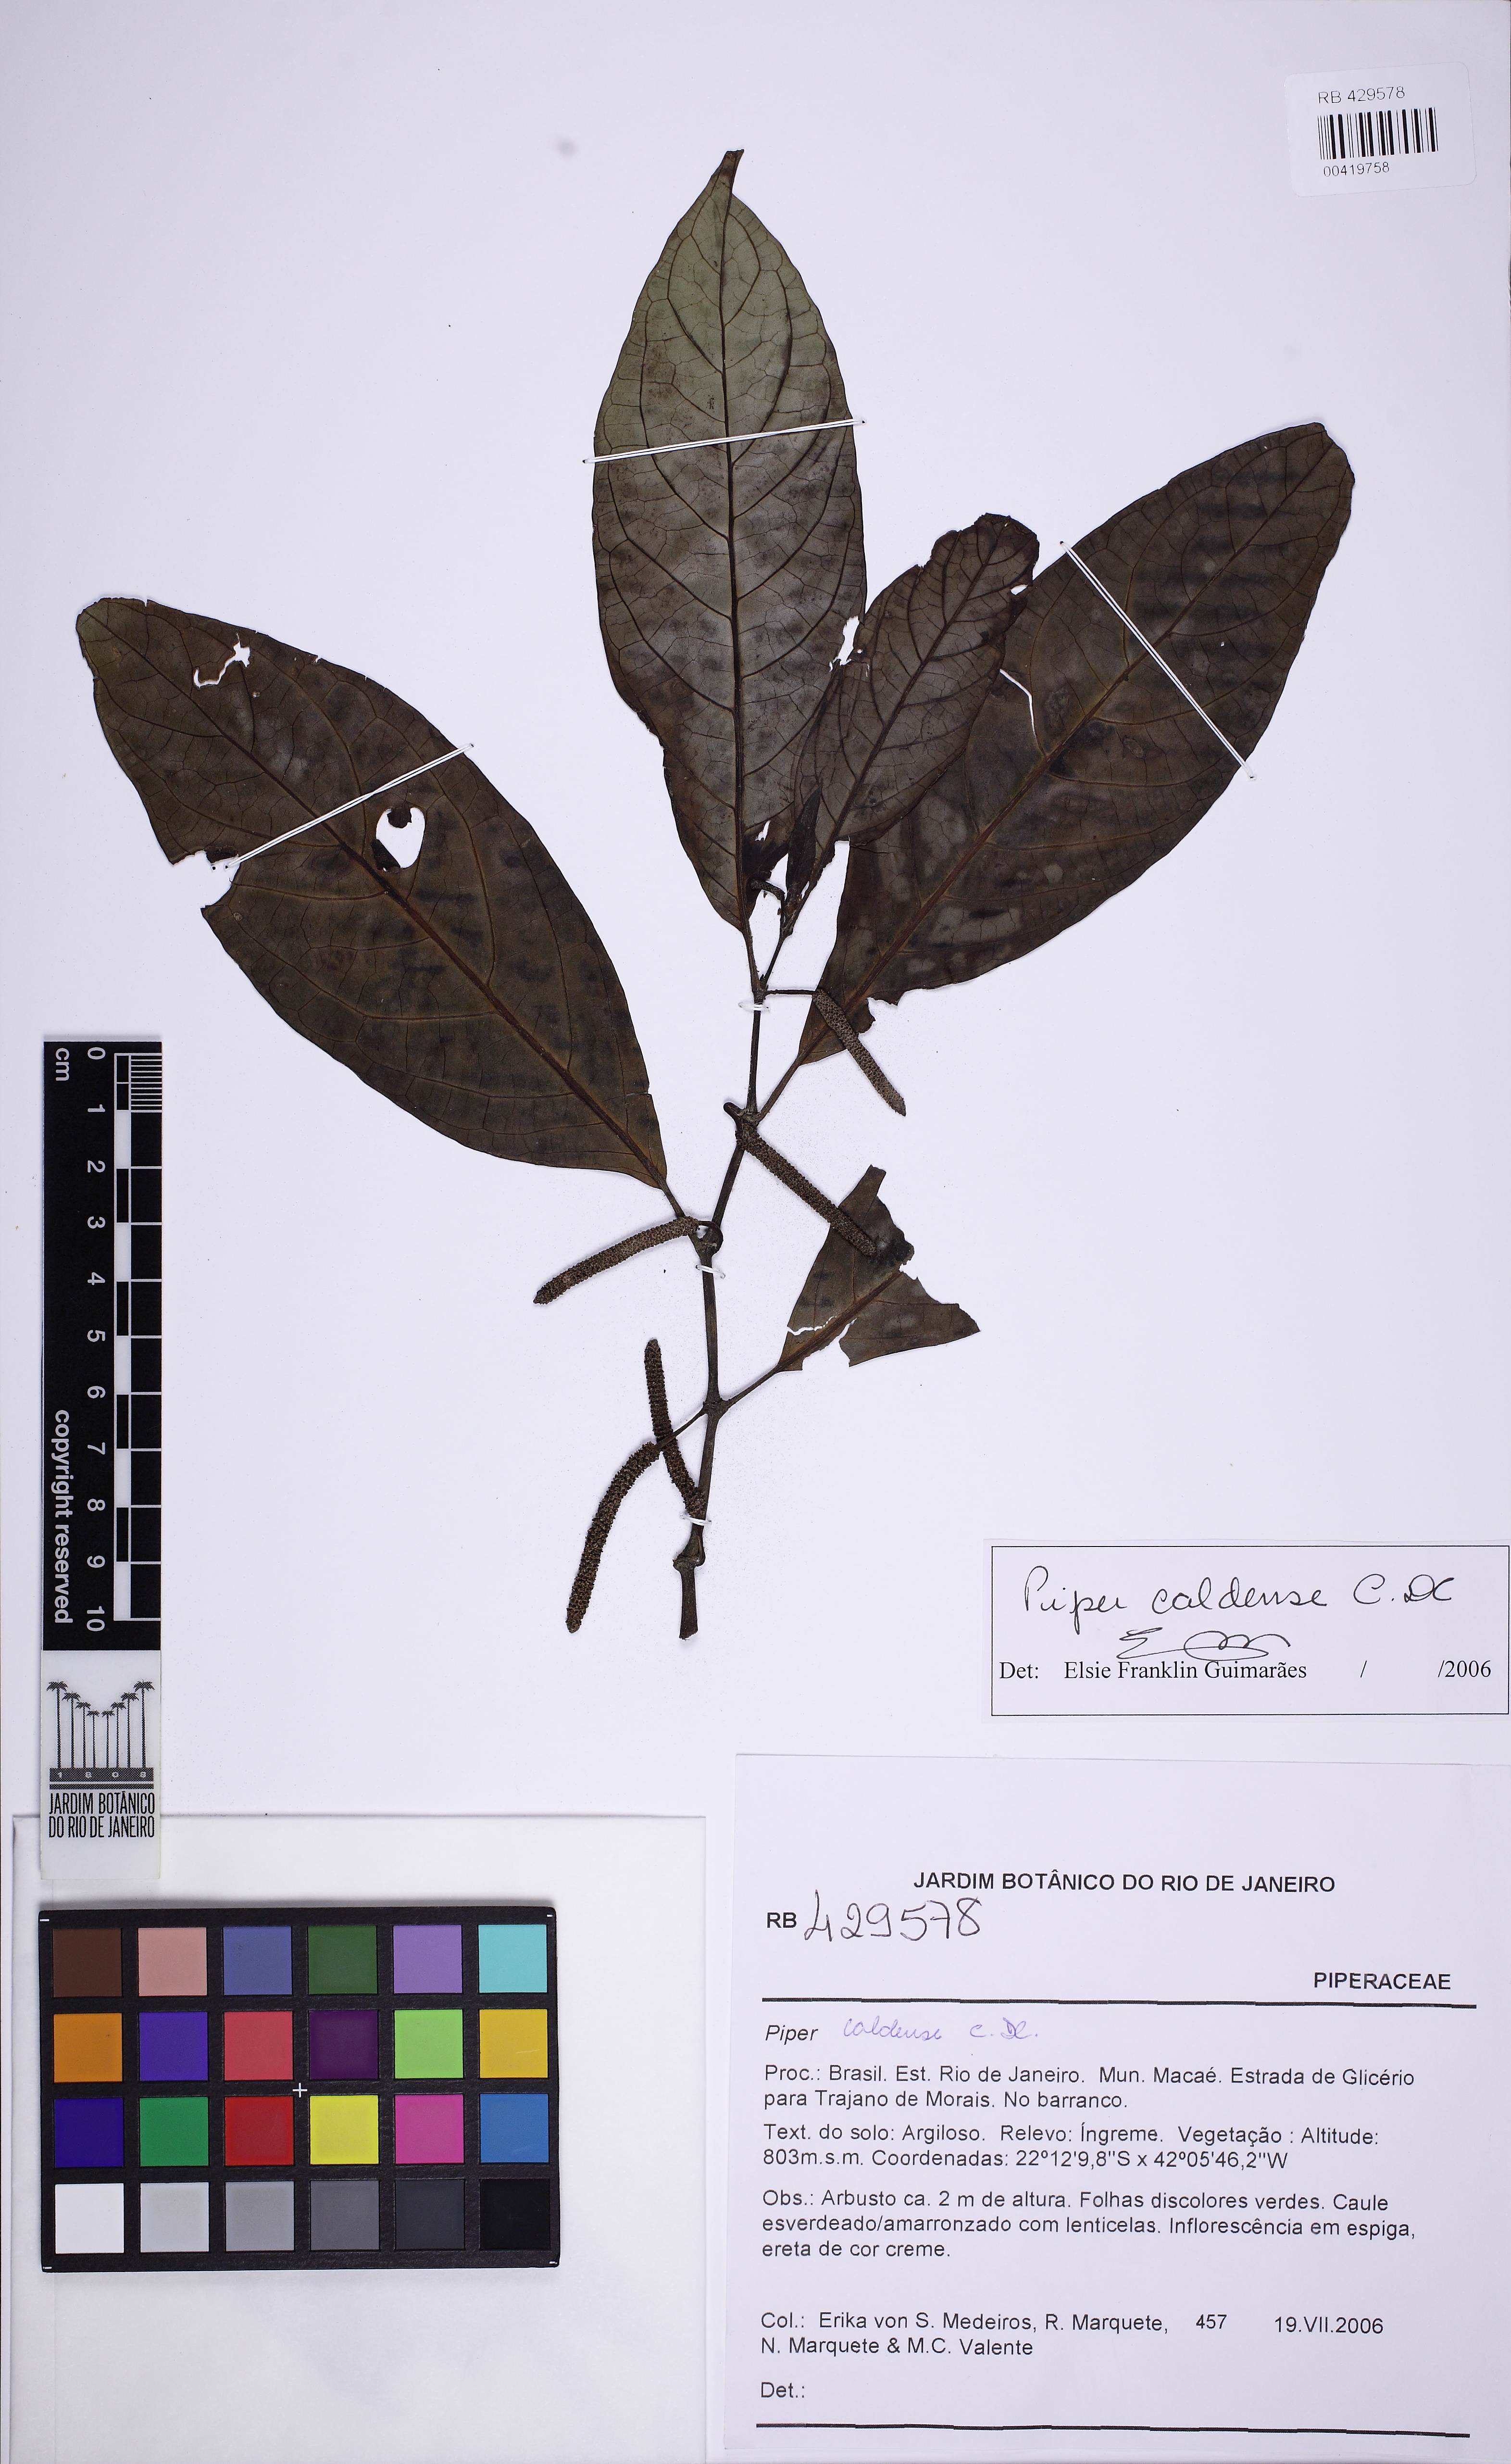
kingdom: Plantae
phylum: Tracheophyta
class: Magnoliopsida
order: Piperales
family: Piperaceae
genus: Piper
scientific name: Piper caldense
